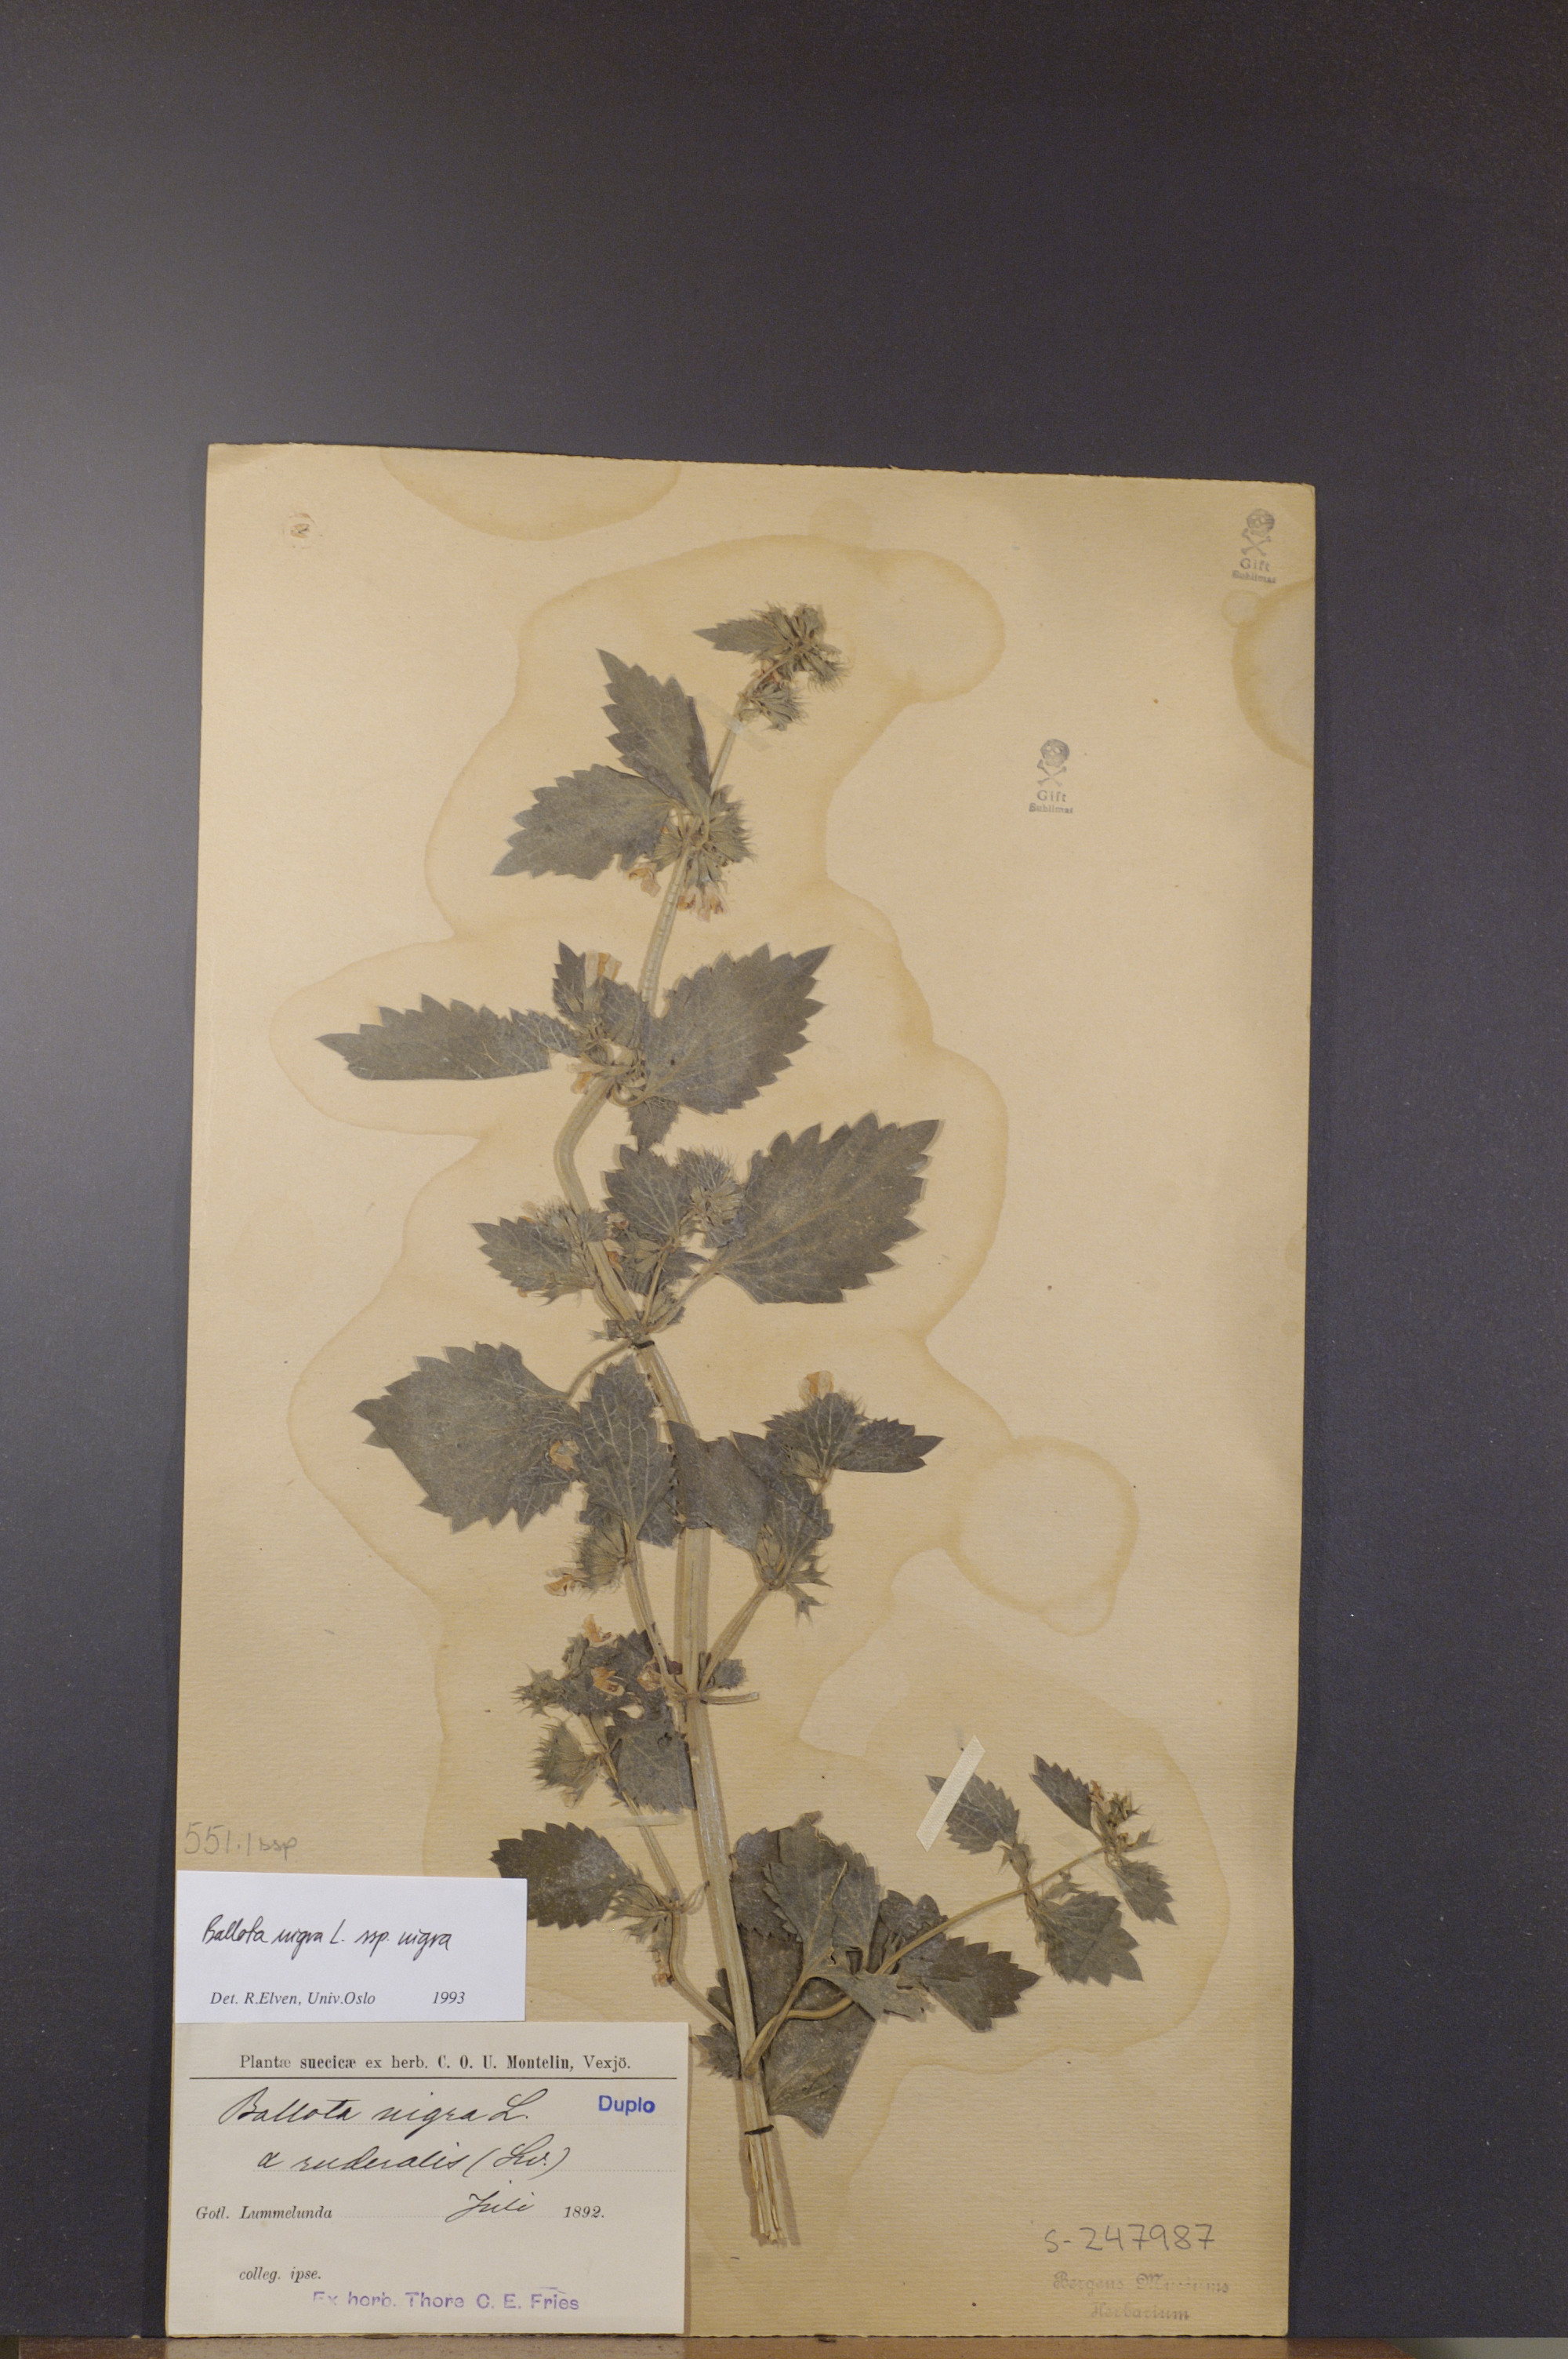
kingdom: Plantae
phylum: Tracheophyta
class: Magnoliopsida
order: Lamiales
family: Lamiaceae
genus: Ballota
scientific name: Ballota nigra
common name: Black horehound
